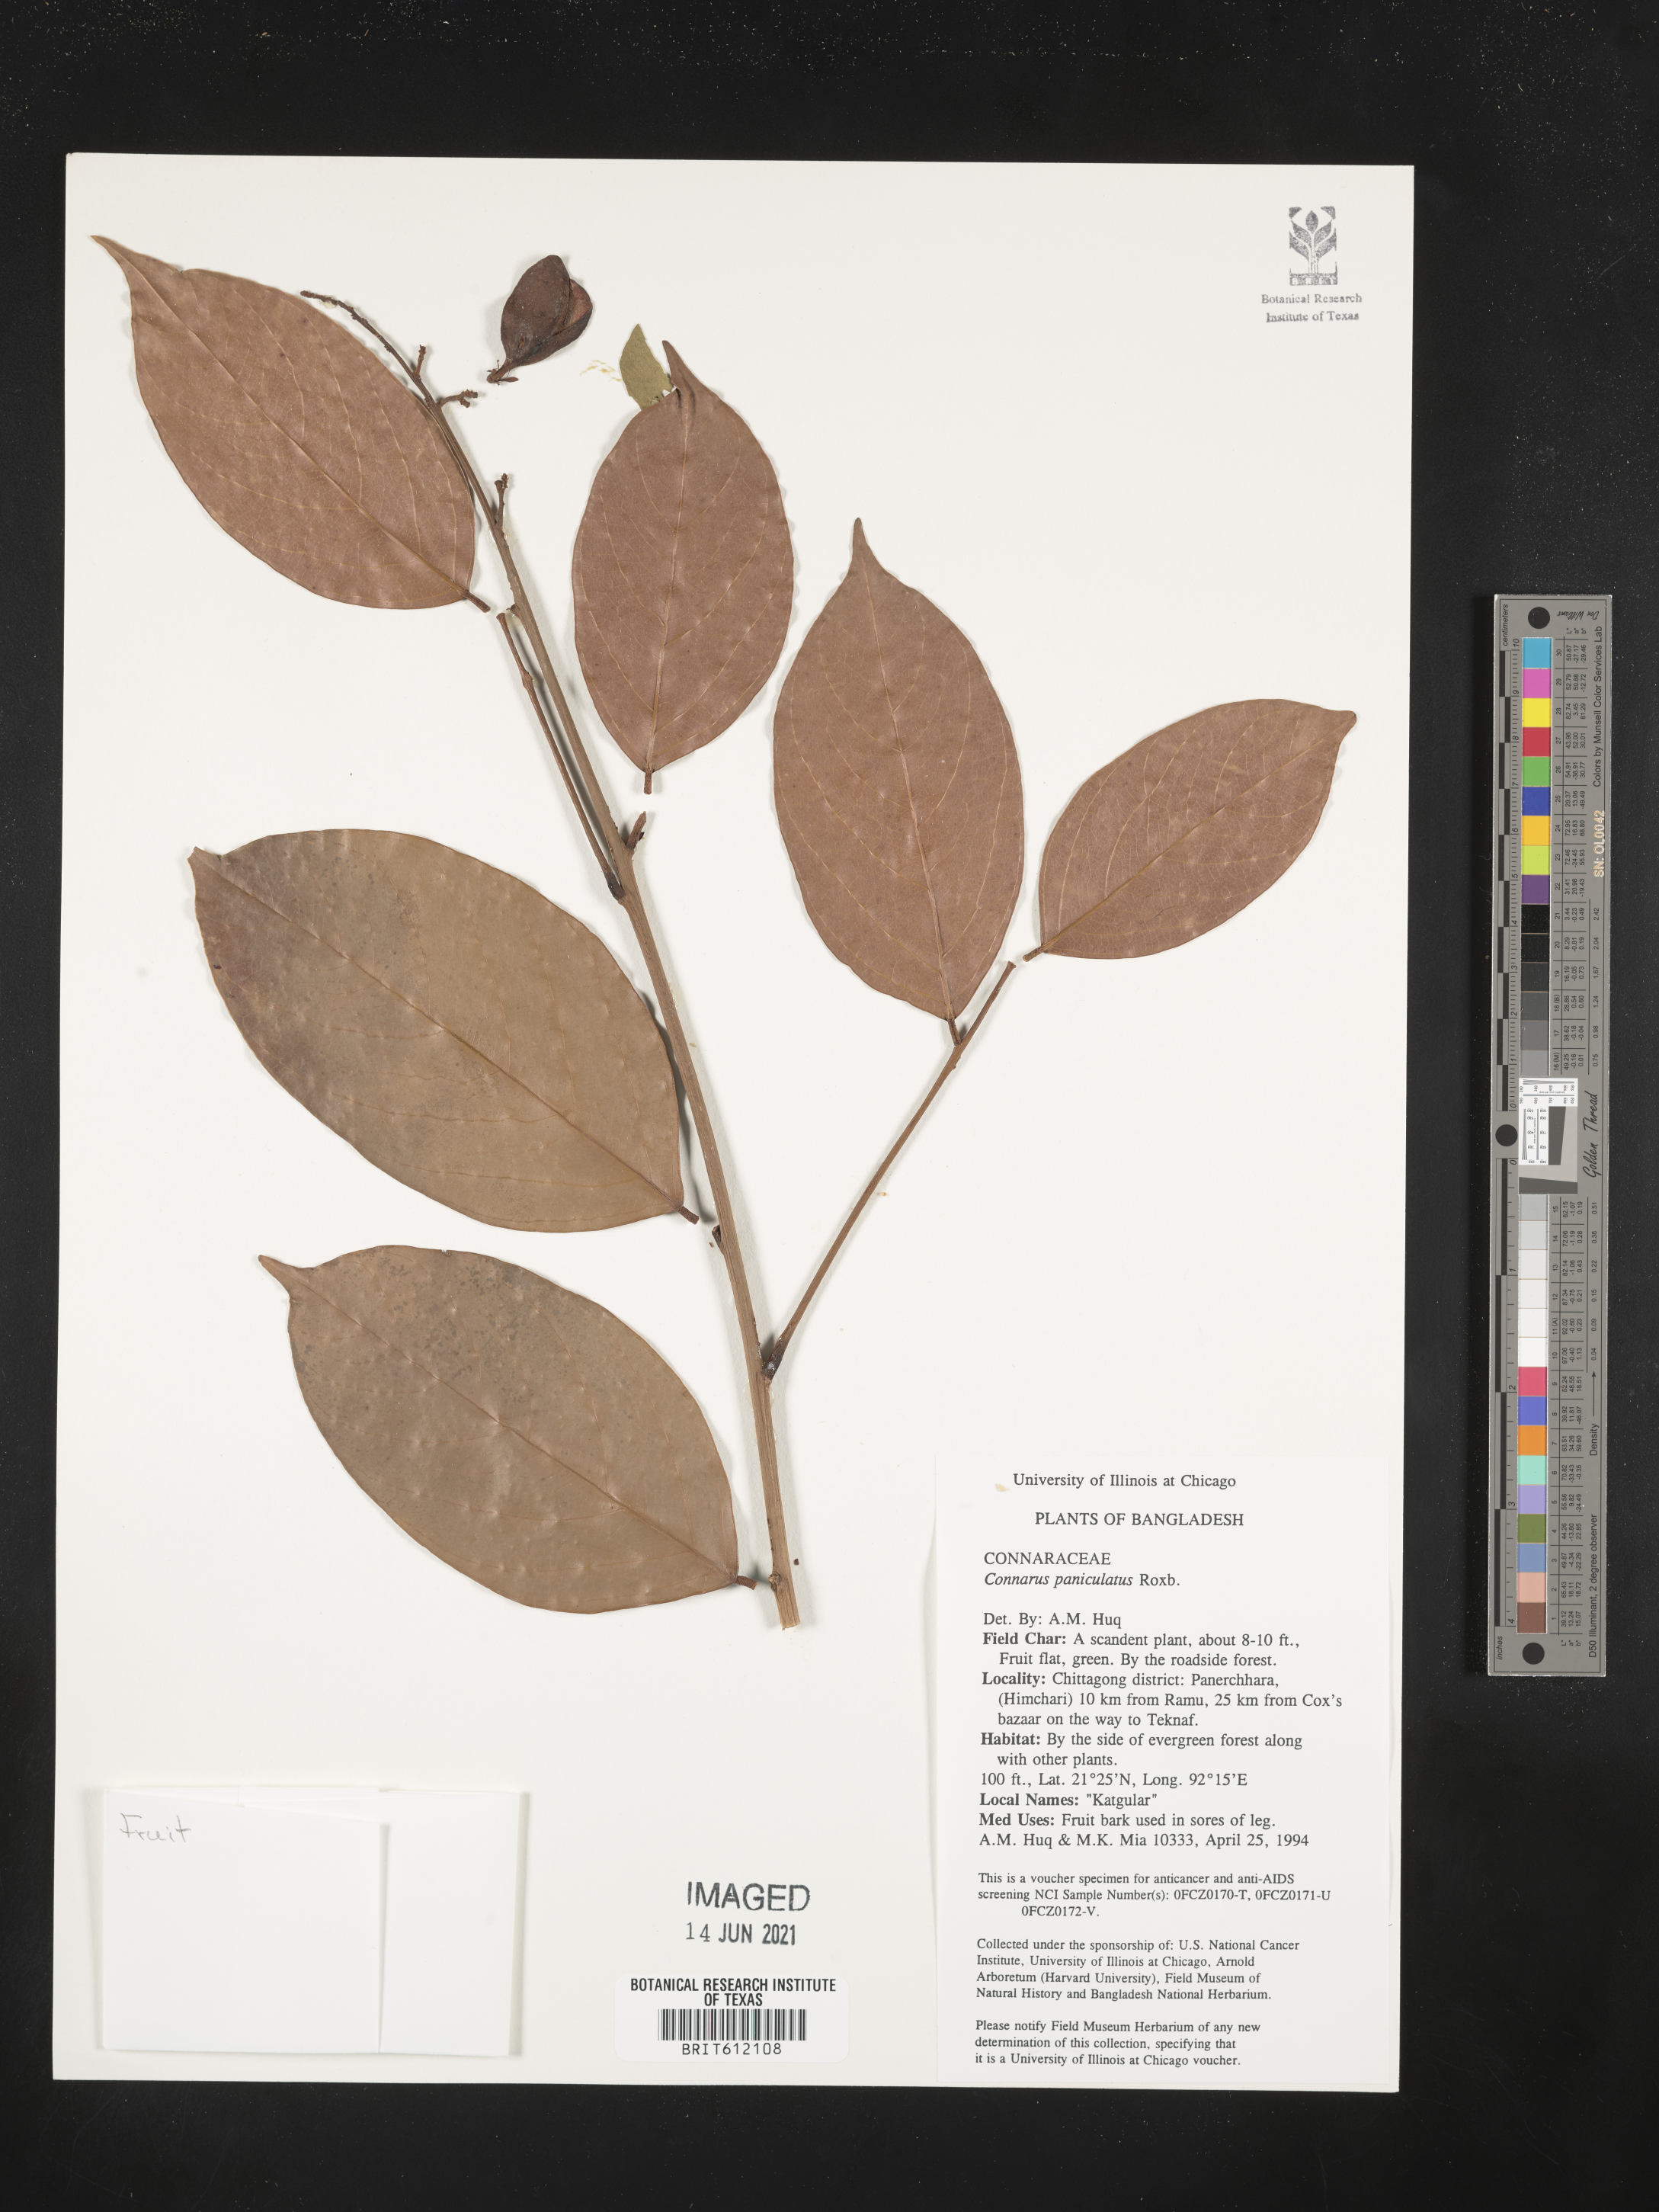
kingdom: Plantae
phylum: Tracheophyta
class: Magnoliopsida
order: Oxalidales
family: Connaraceae
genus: Connarus
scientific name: Connarus paniculatus
